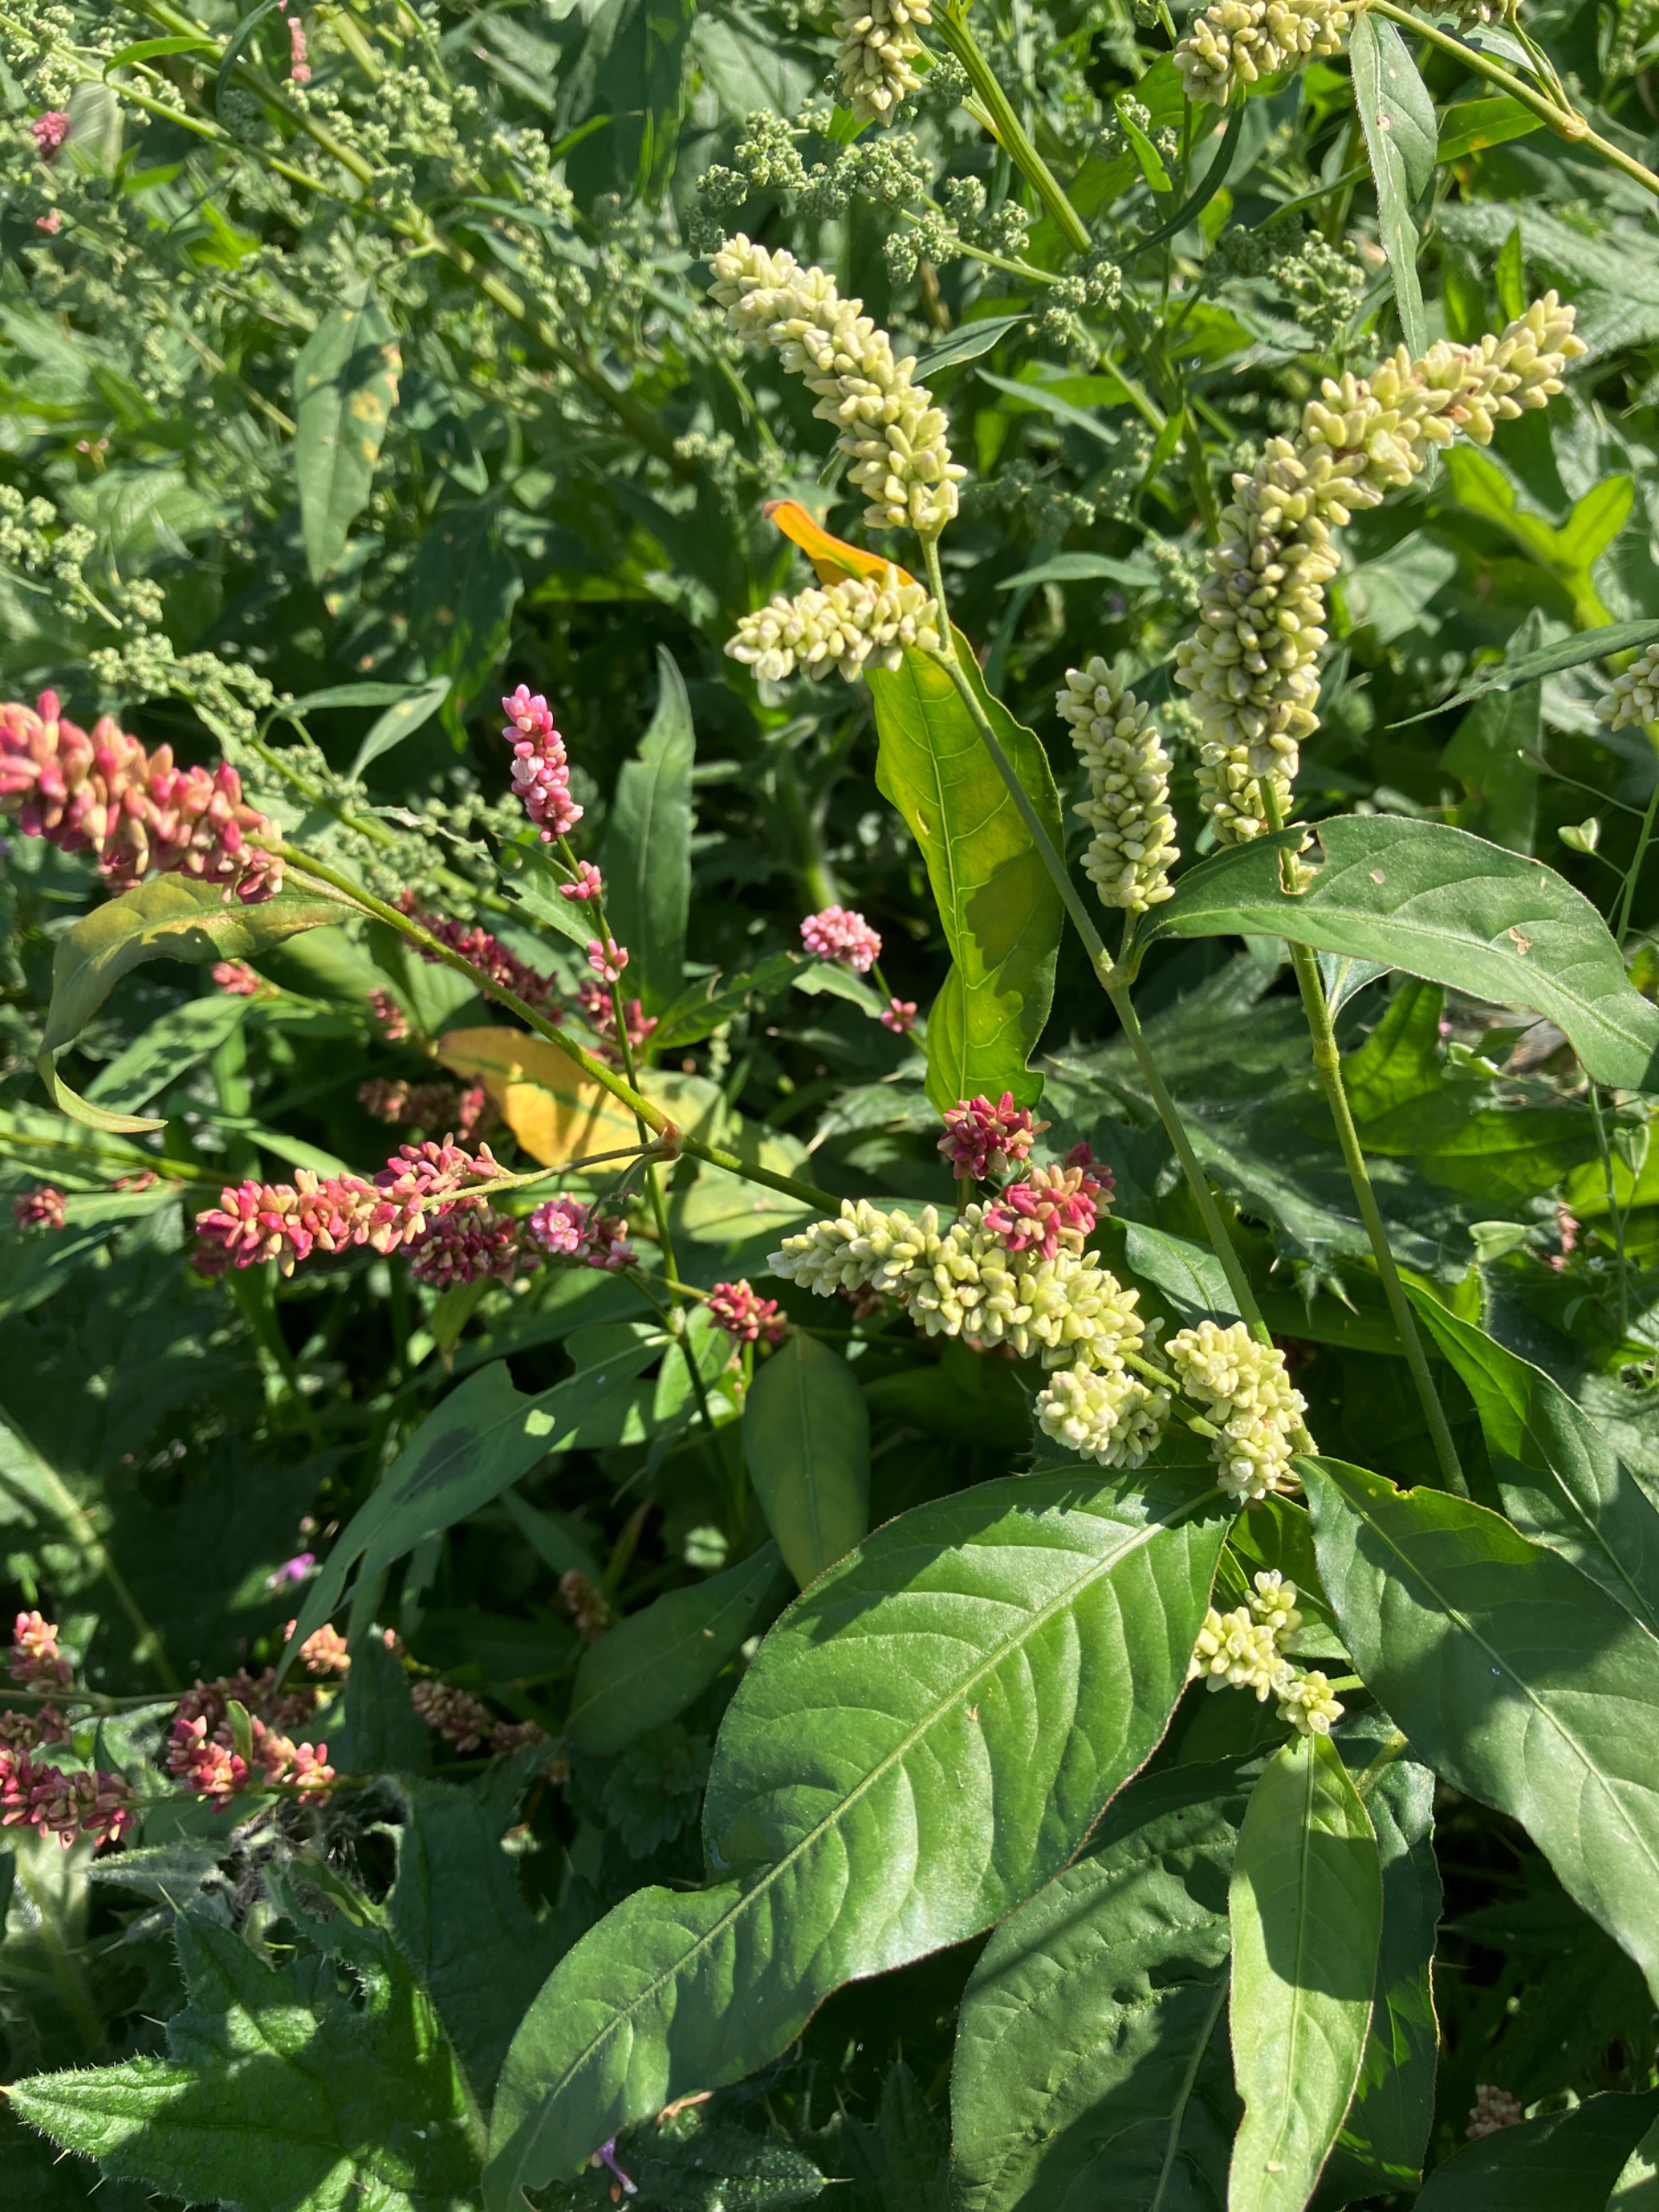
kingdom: Plantae
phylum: Tracheophyta
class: Magnoliopsida
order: Caryophyllales
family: Polygonaceae
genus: Persicaria
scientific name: Persicaria maculosa
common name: Fersken-pileurt
